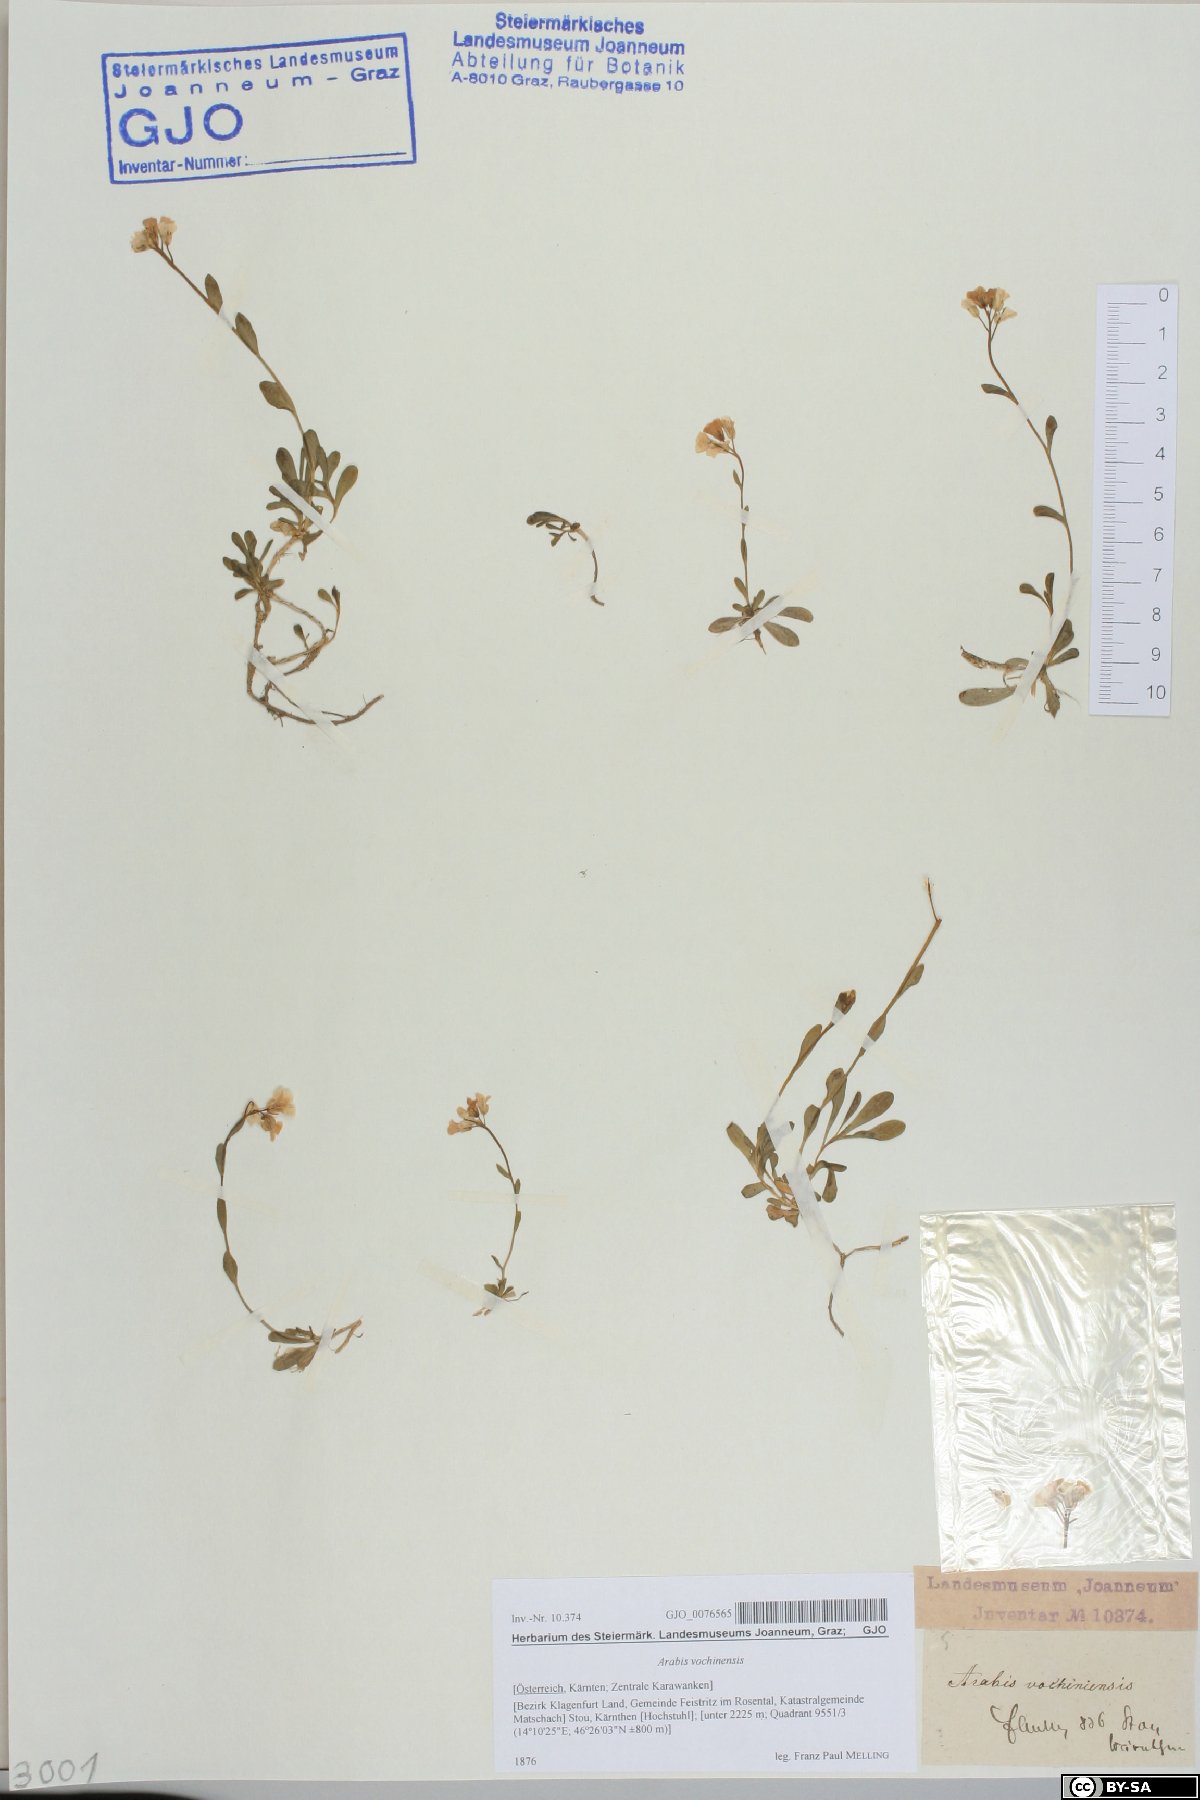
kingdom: Plantae
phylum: Tracheophyta
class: Magnoliopsida
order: Brassicales
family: Brassicaceae
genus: Arabis
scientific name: Arabis vochinensis
